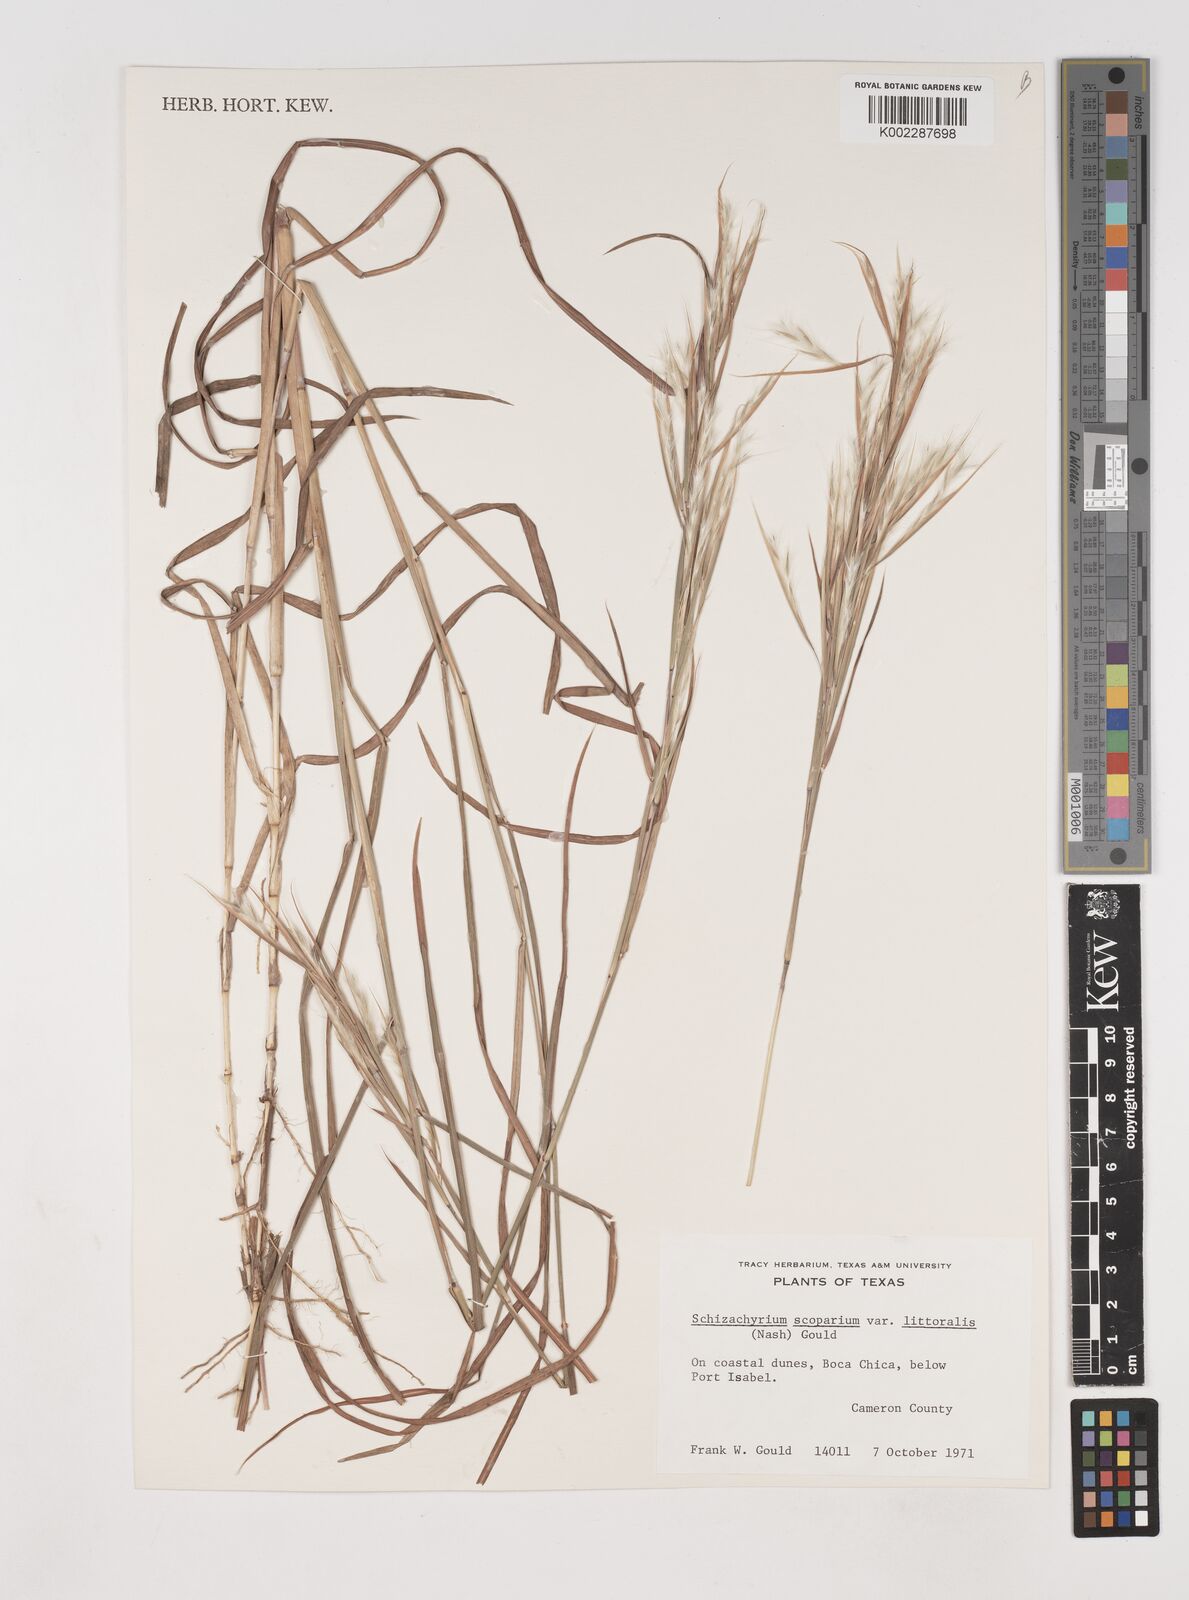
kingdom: Plantae
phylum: Tracheophyta
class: Liliopsida
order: Poales
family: Poaceae
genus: Schizachyrium
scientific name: Schizachyrium scoparium
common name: Little bluestem
